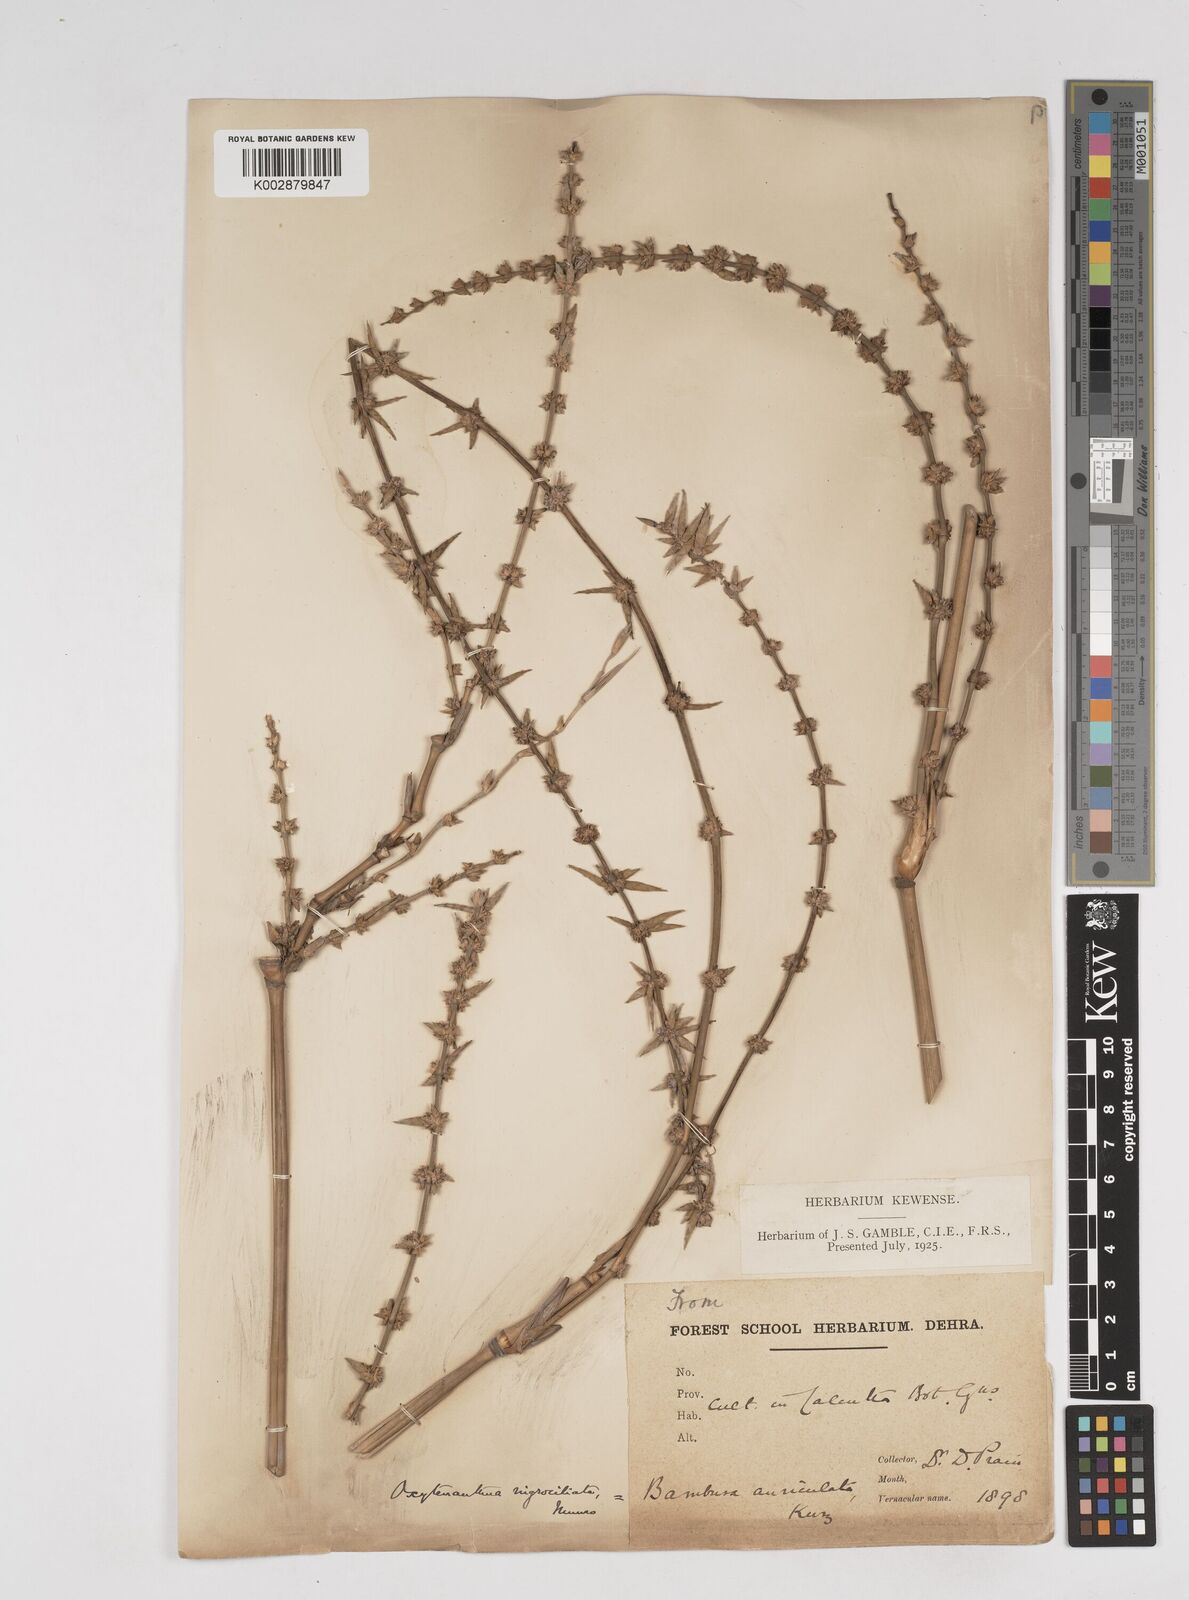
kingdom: Plantae
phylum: Tracheophyta
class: Liliopsida
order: Poales
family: Poaceae
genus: Gigantochloa
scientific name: Gigantochloa nigrociliata
